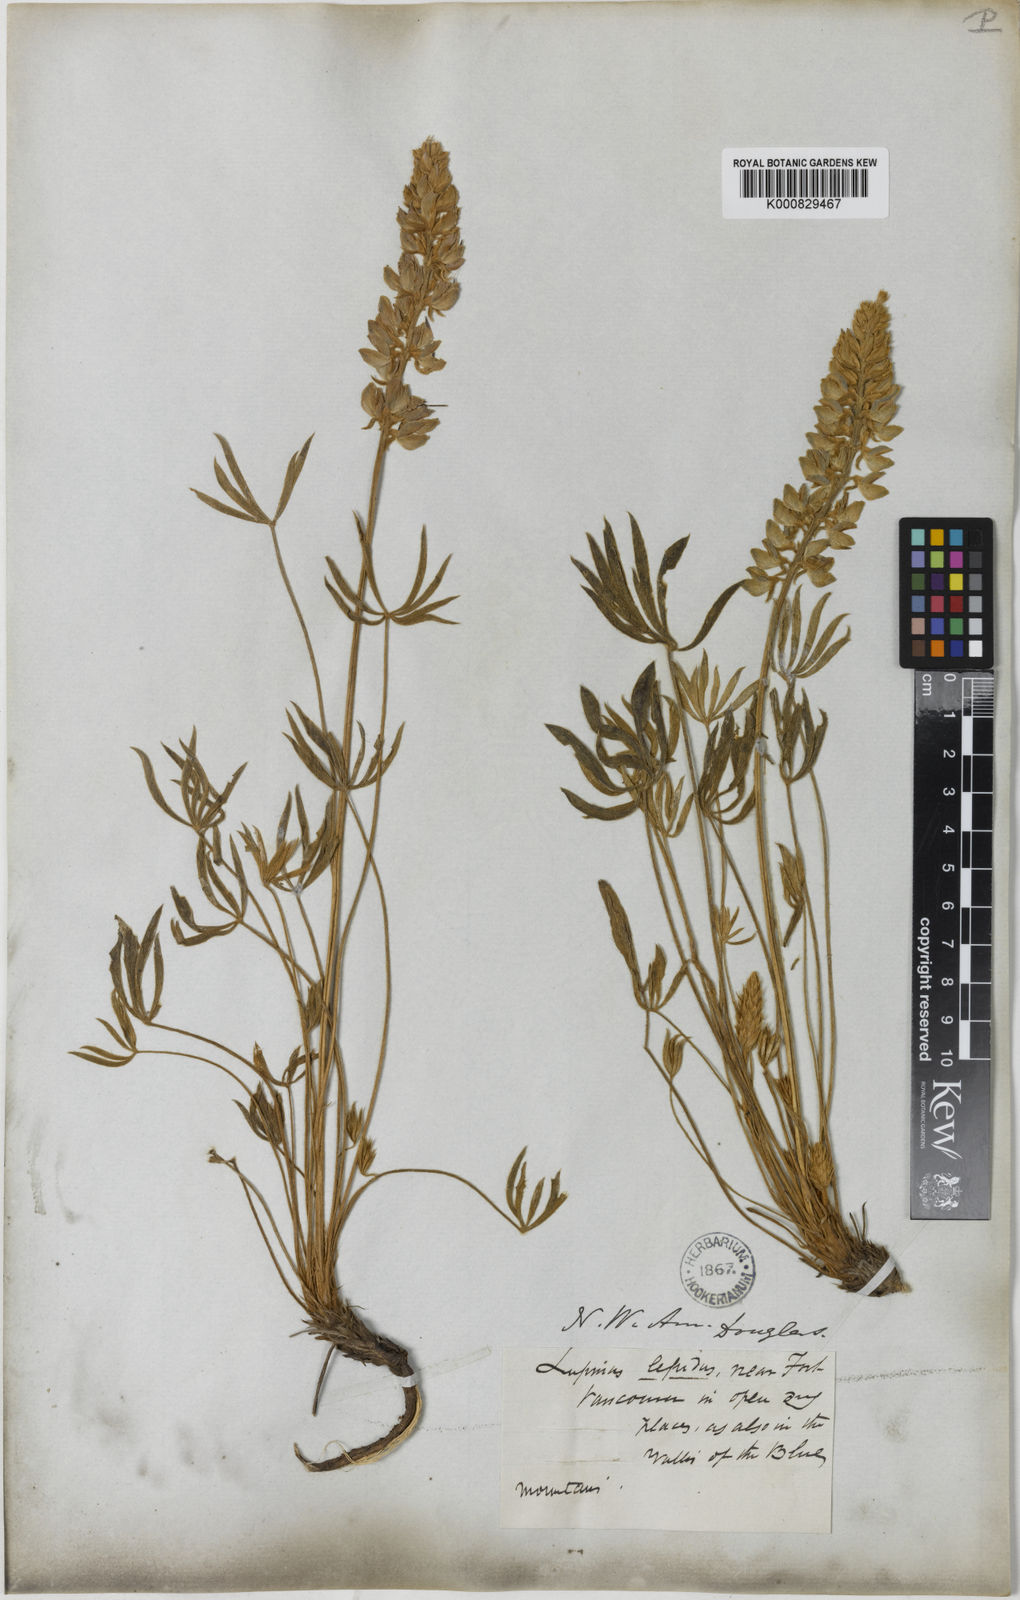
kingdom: Plantae
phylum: Tracheophyta
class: Magnoliopsida
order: Fabales
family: Fabaceae
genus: Lupinus
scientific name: Lupinus lepidus
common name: Prairie lupine
